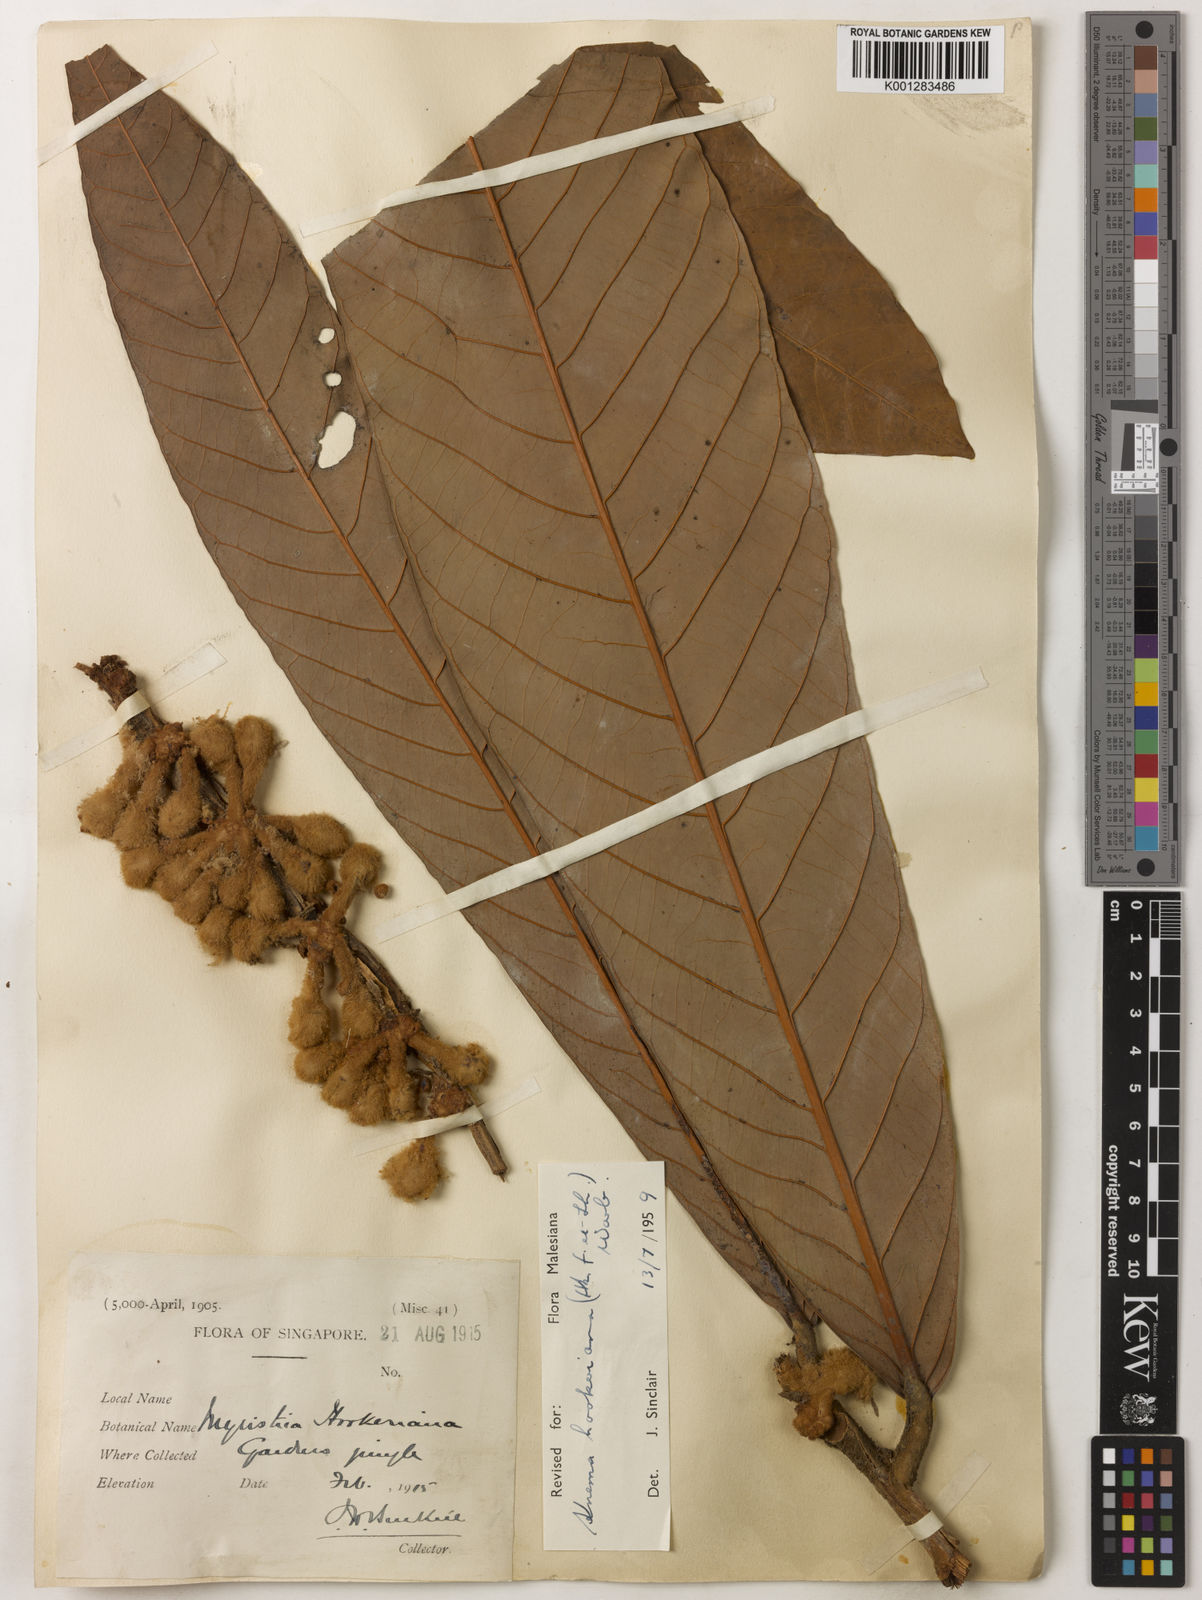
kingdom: Plantae
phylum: Tracheophyta
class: Magnoliopsida
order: Magnoliales
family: Myristicaceae
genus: Knema
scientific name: Knema hookeriana
